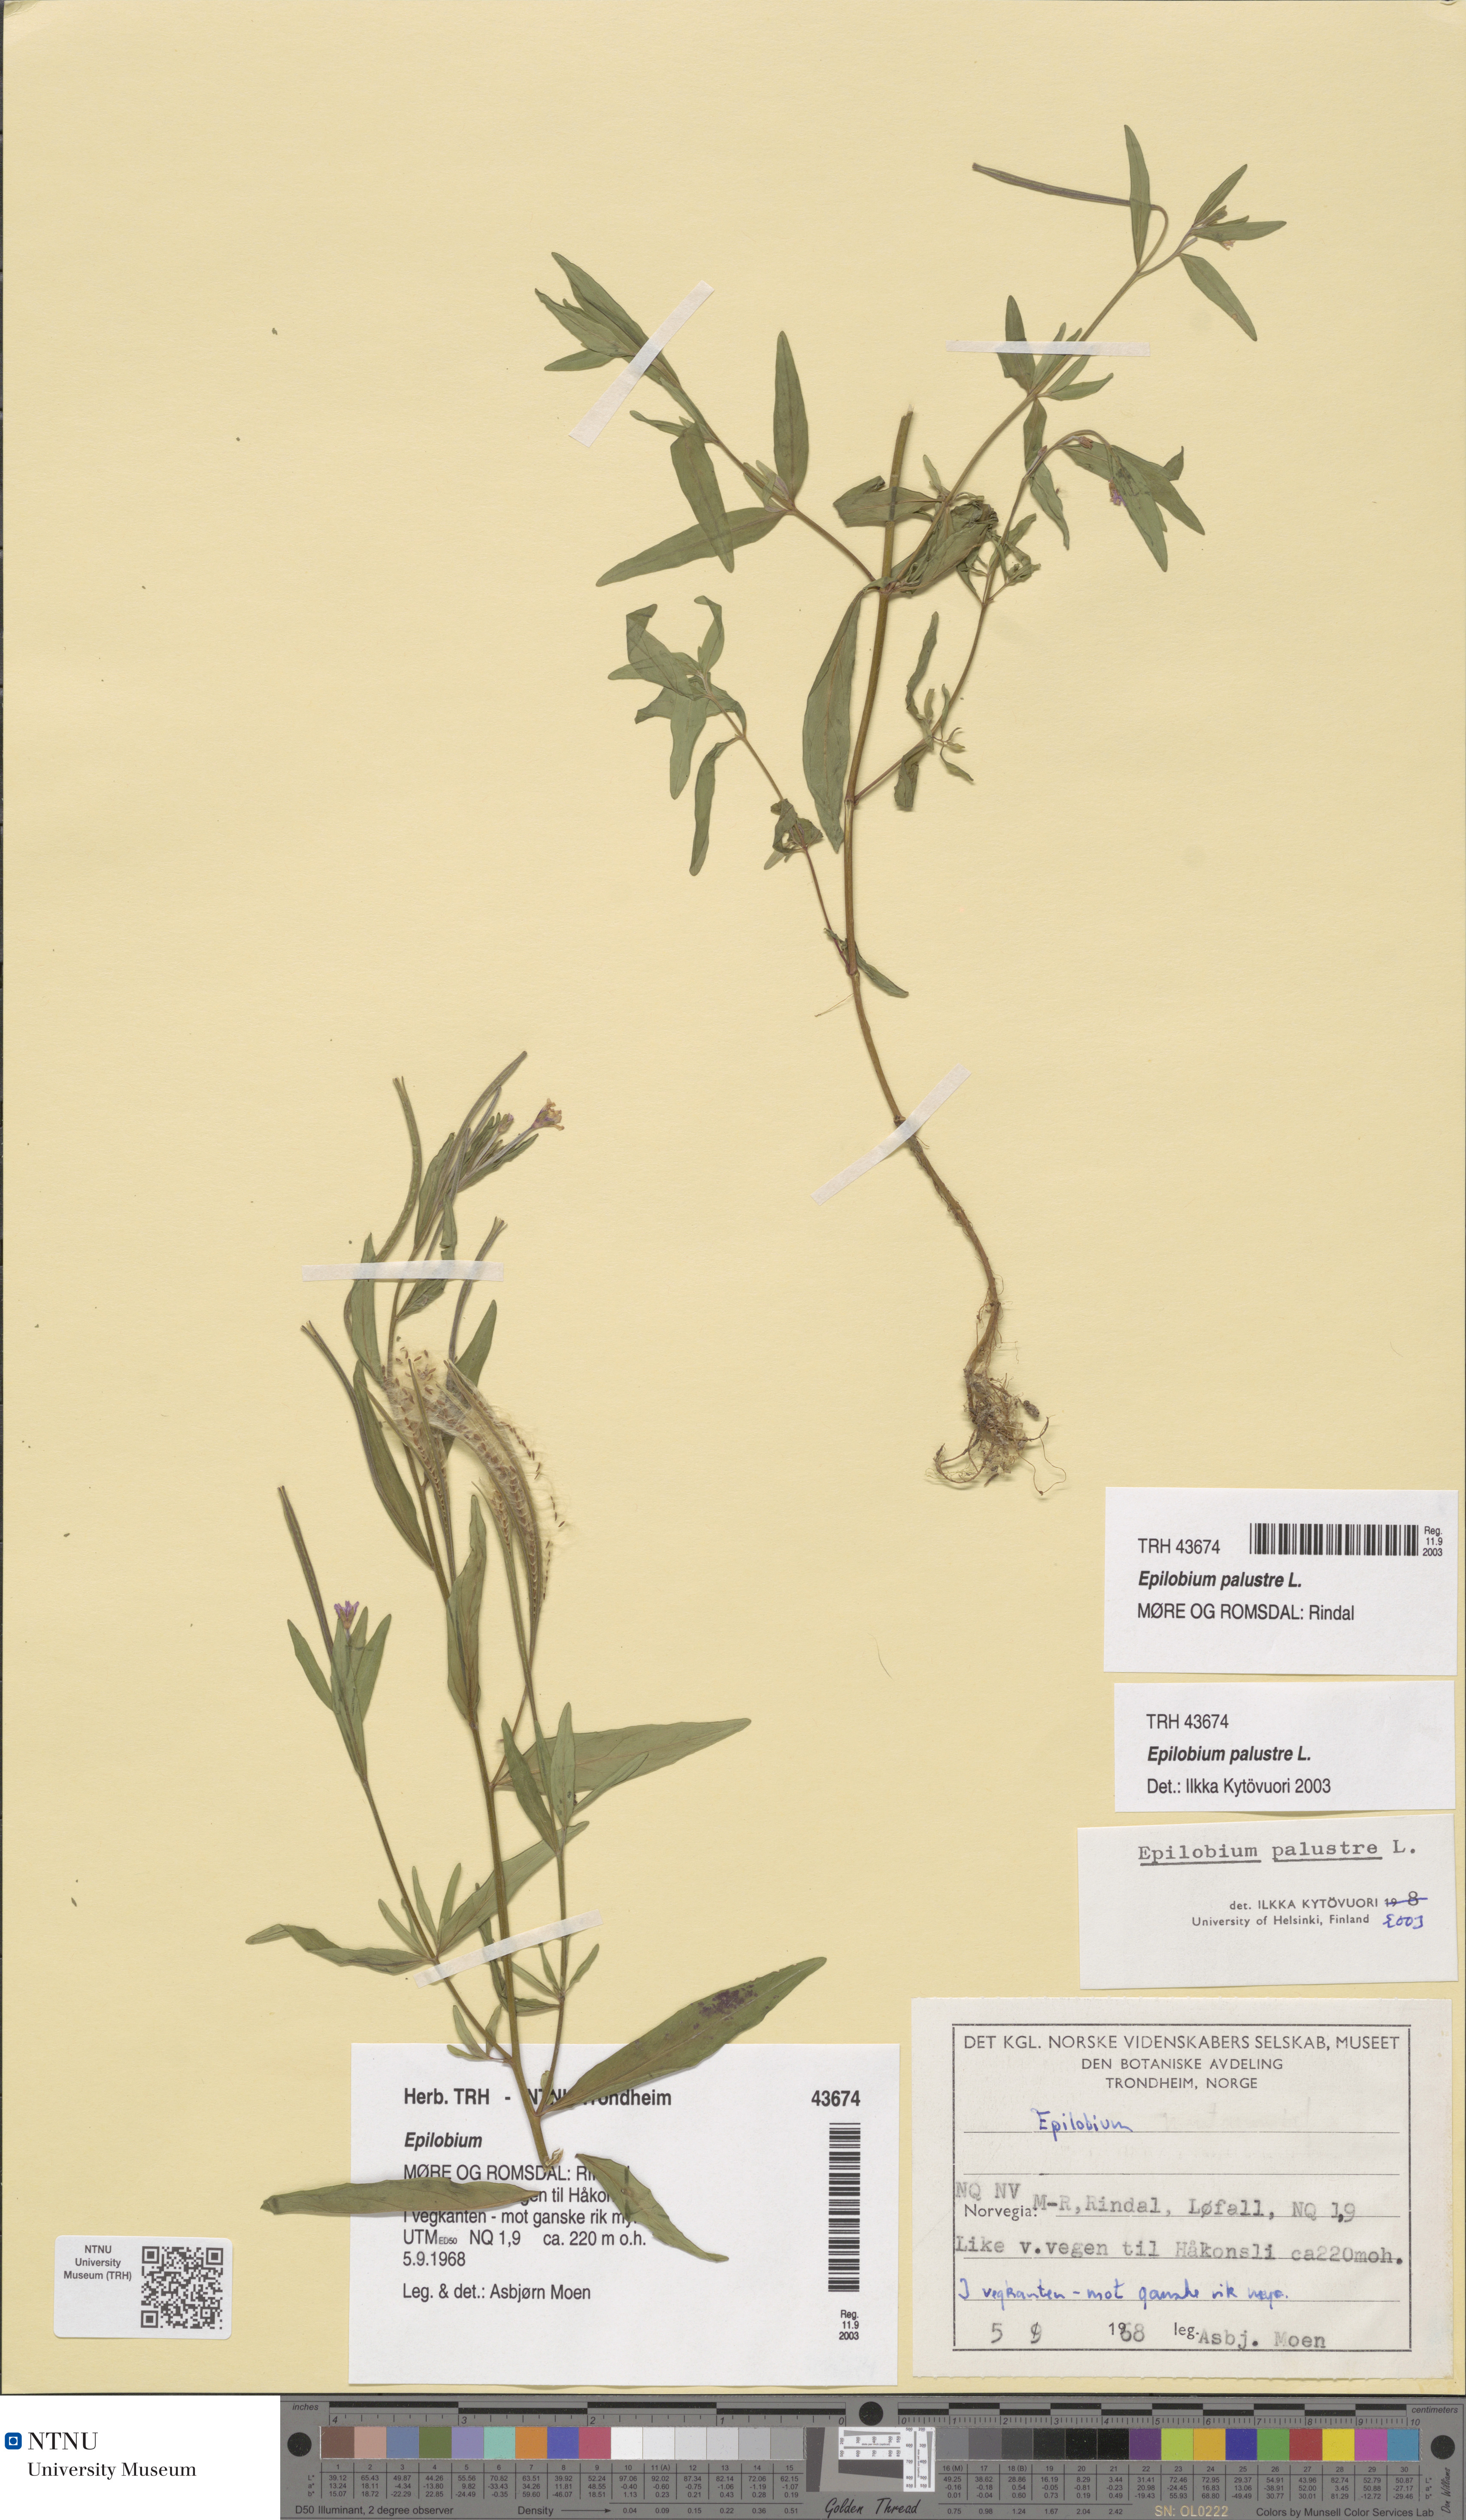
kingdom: Plantae
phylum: Tracheophyta
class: Magnoliopsida
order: Myrtales
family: Onagraceae
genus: Epilobium
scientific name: Epilobium palustre
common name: Marsh willowherb
